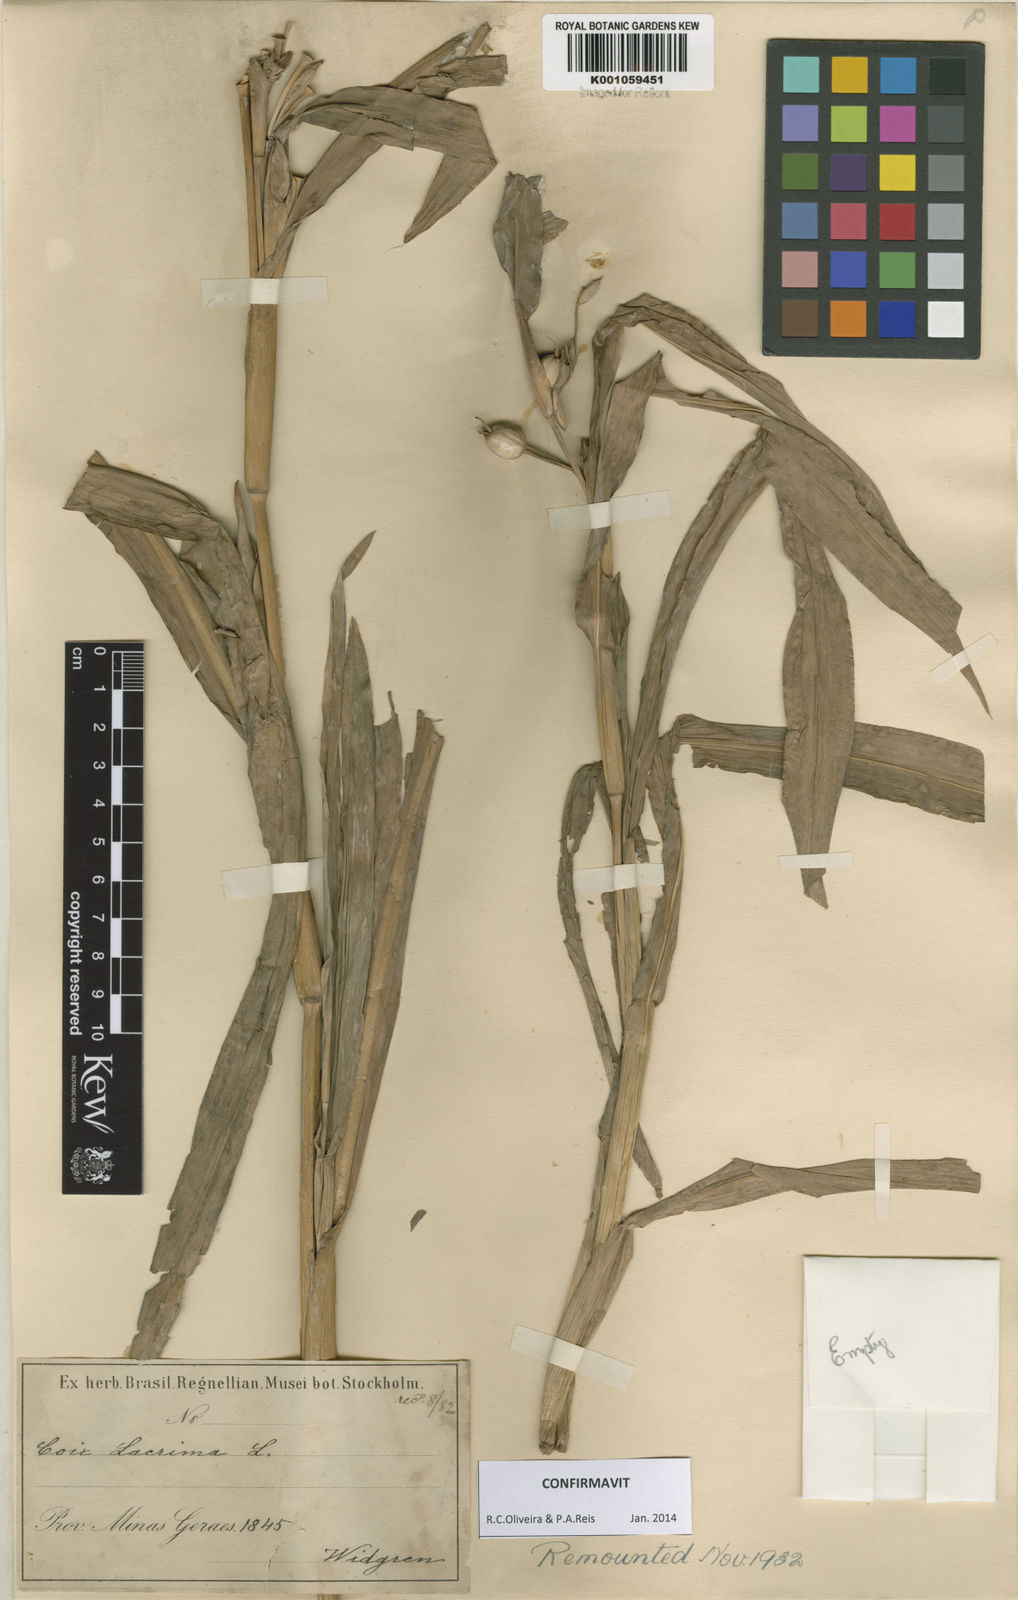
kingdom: Plantae
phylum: Tracheophyta
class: Liliopsida
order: Poales
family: Poaceae
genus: Coix
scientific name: Coix lacryma-jobi
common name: Job's tears
